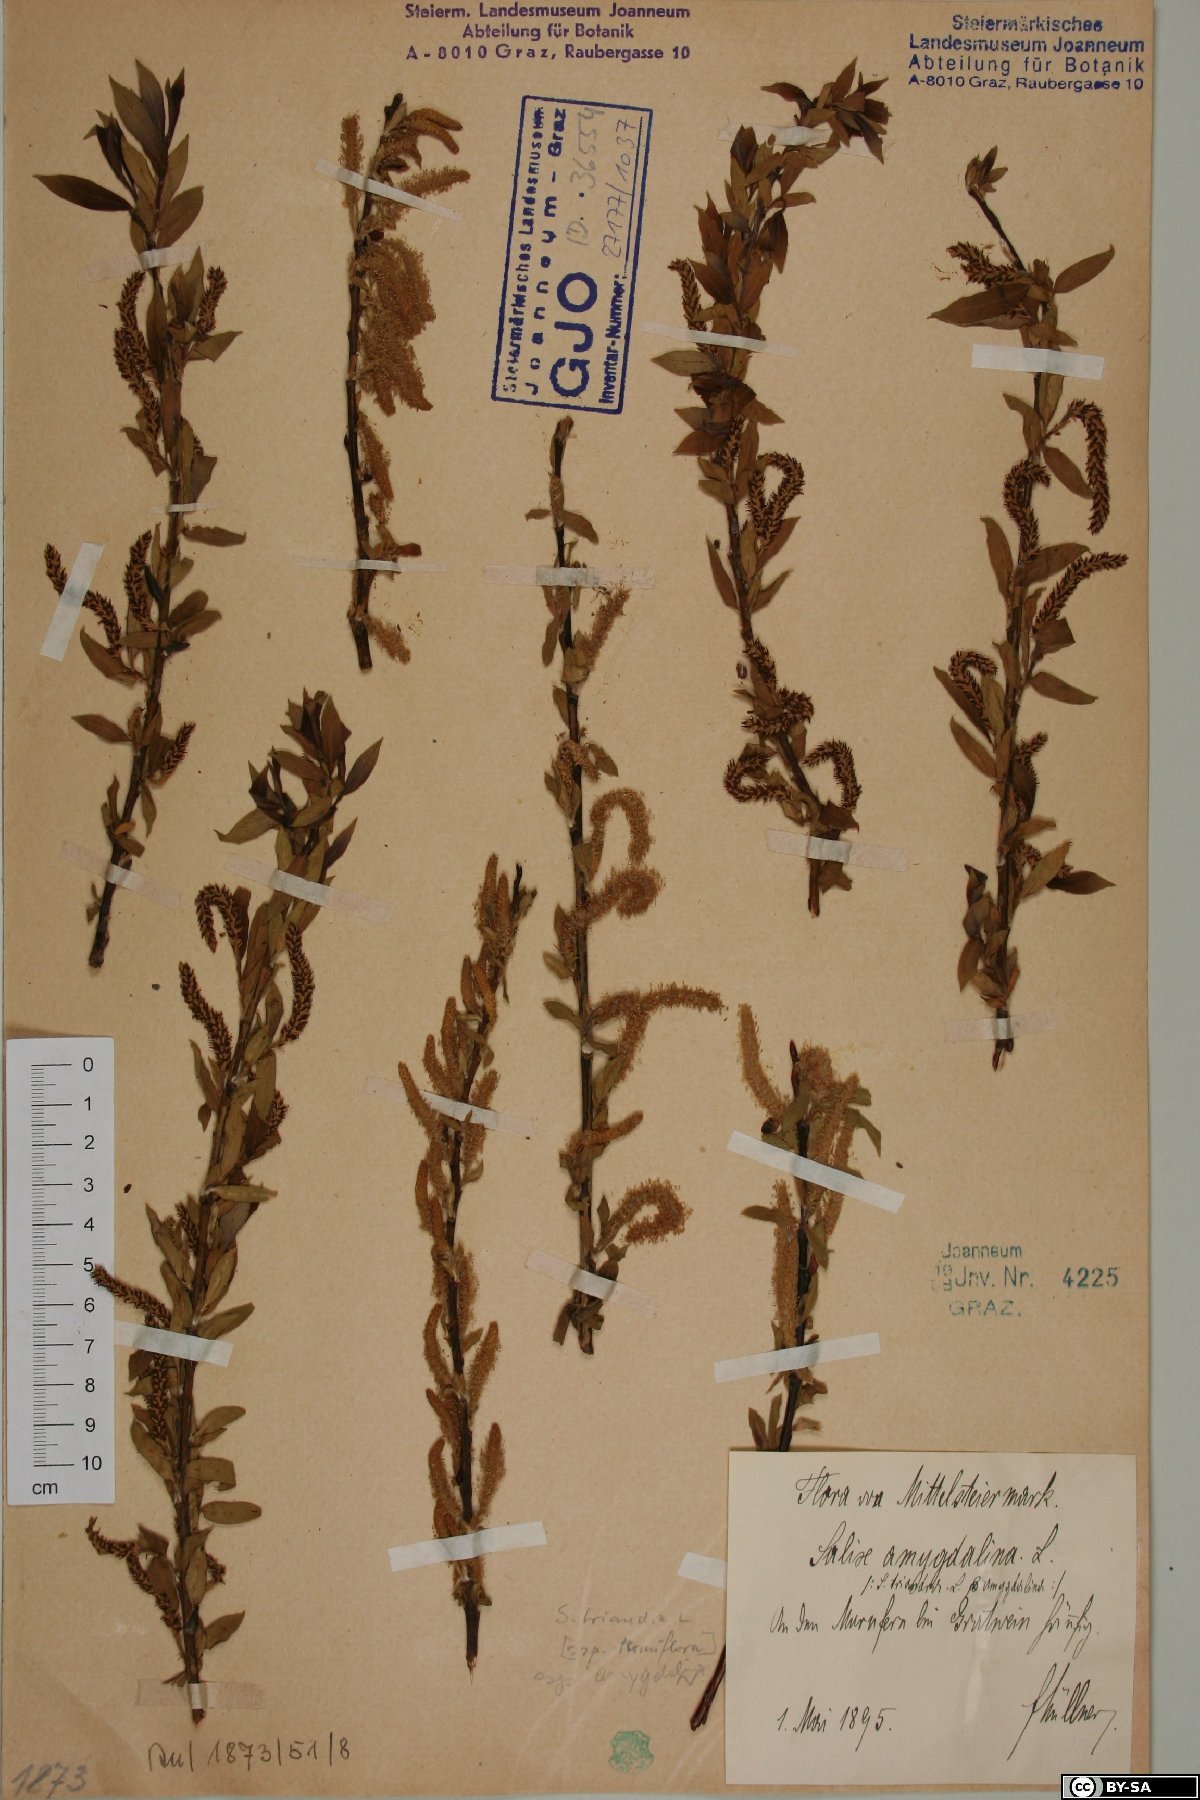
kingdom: Plantae
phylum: Tracheophyta
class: Magnoliopsida
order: Malpighiales
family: Salicaceae
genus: Salix
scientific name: Salix triandra
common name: Almond willow
